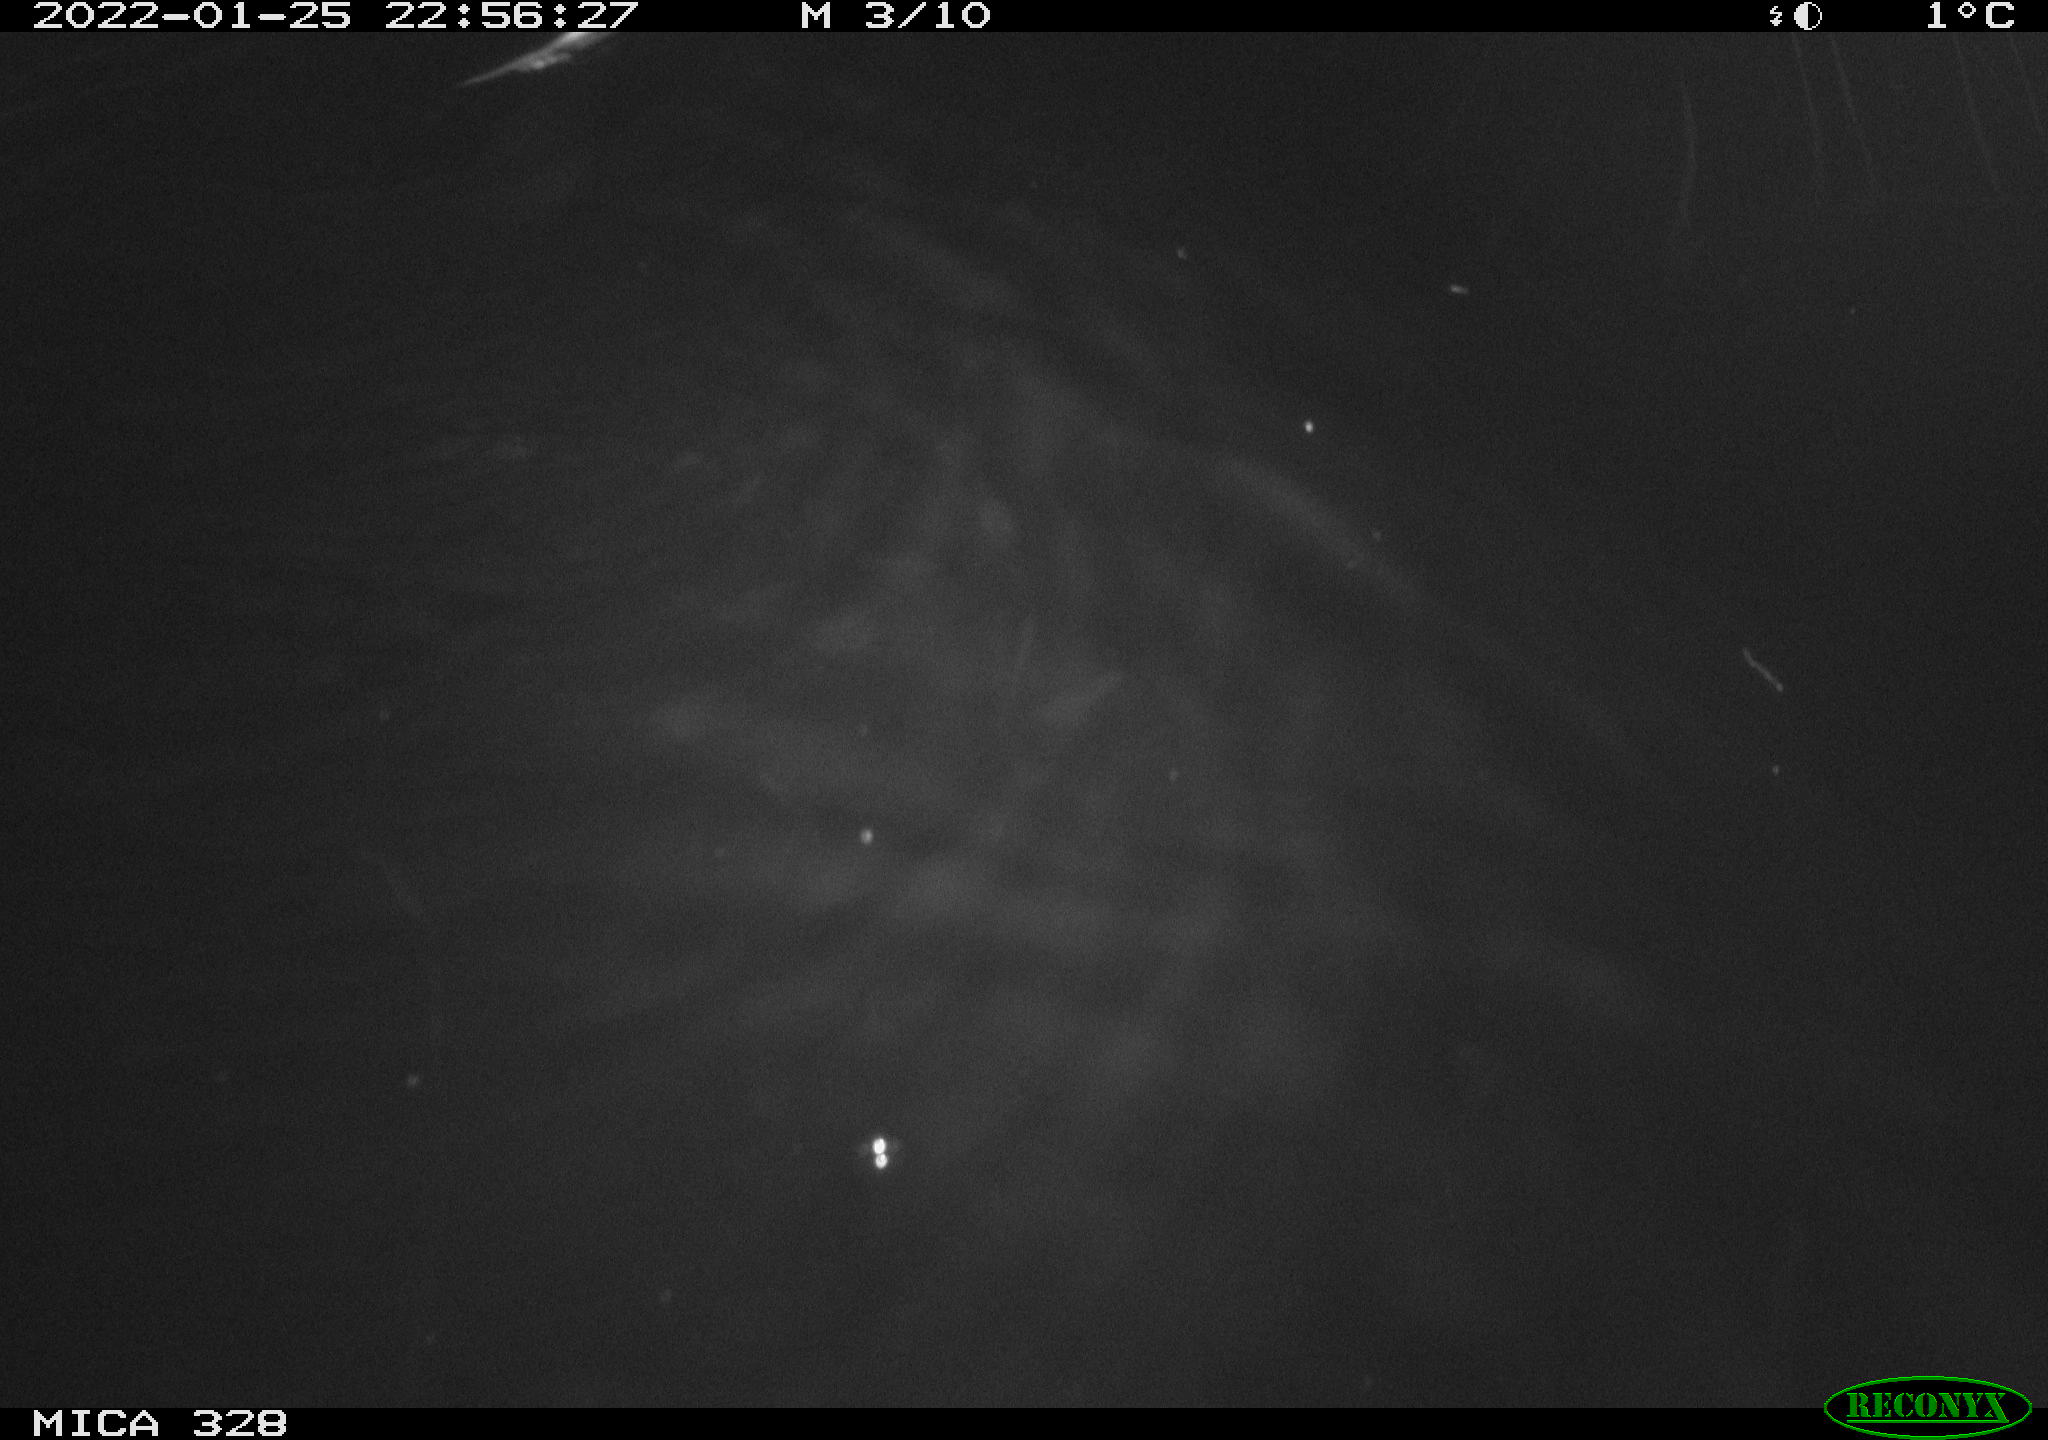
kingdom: Animalia
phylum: Chordata
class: Mammalia
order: Rodentia
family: Cricetidae
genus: Ondatra
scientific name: Ondatra zibethicus
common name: Muskrat
